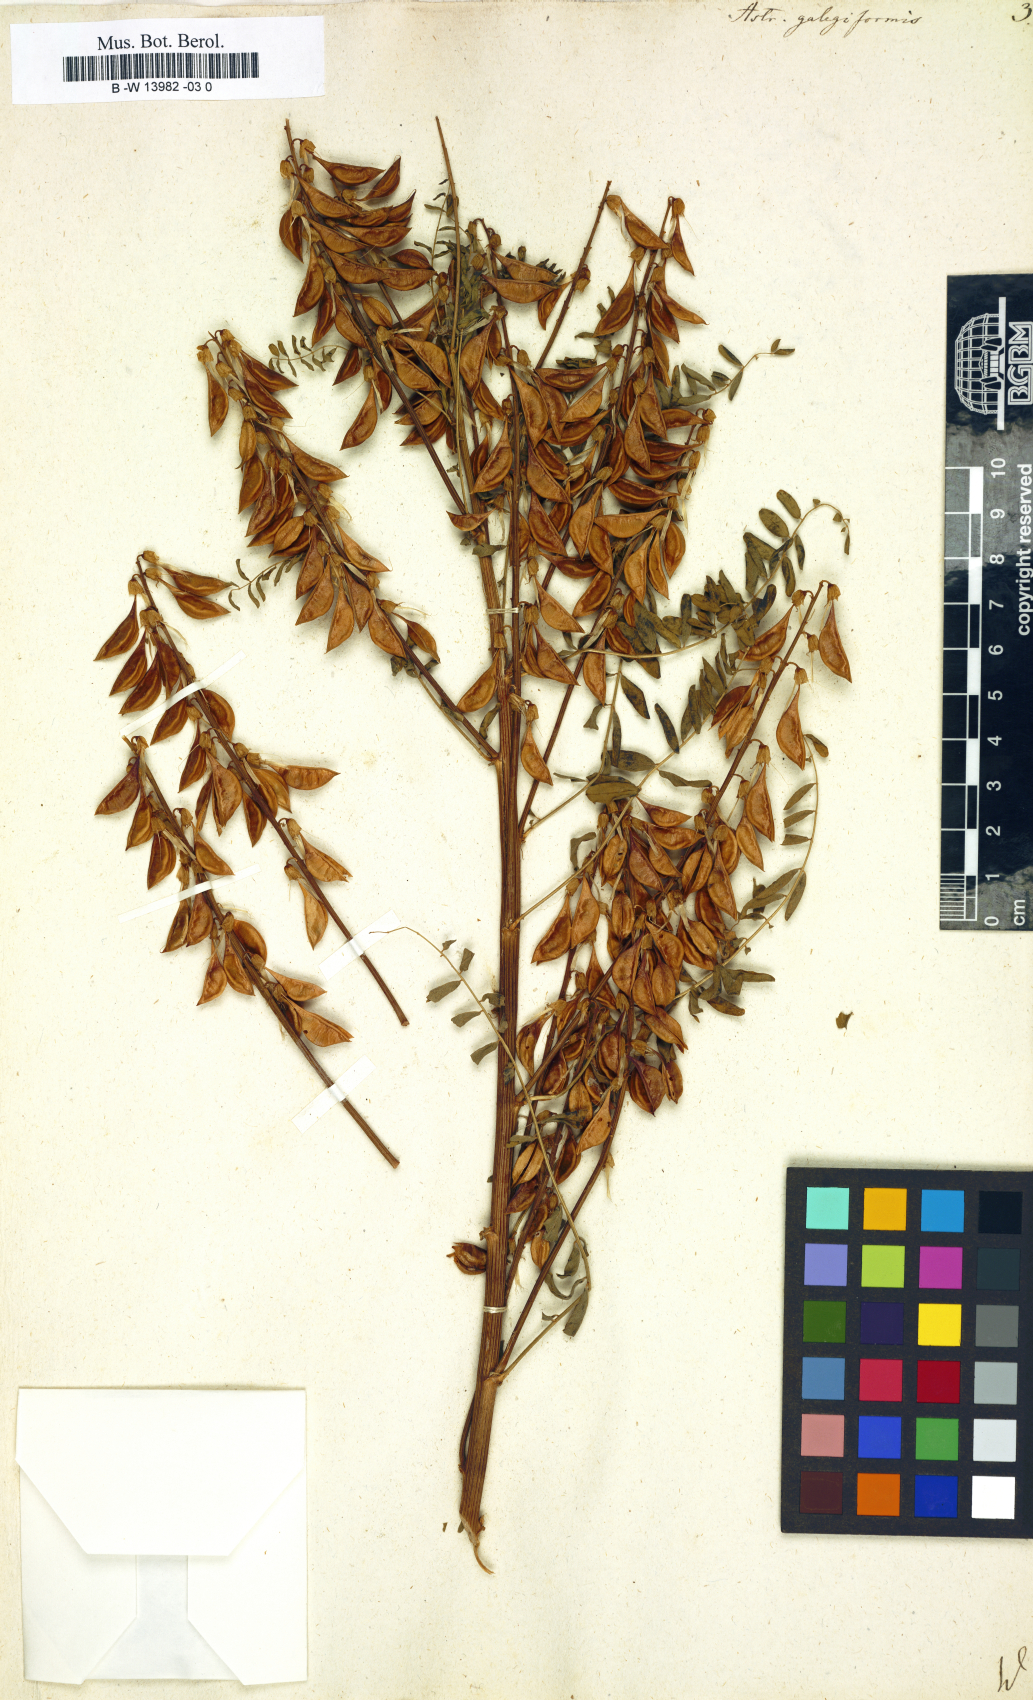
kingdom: Plantae
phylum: Tracheophyta
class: Magnoliopsida
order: Fabales
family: Fabaceae
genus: Astragalus
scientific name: Astragalus galegiformis
